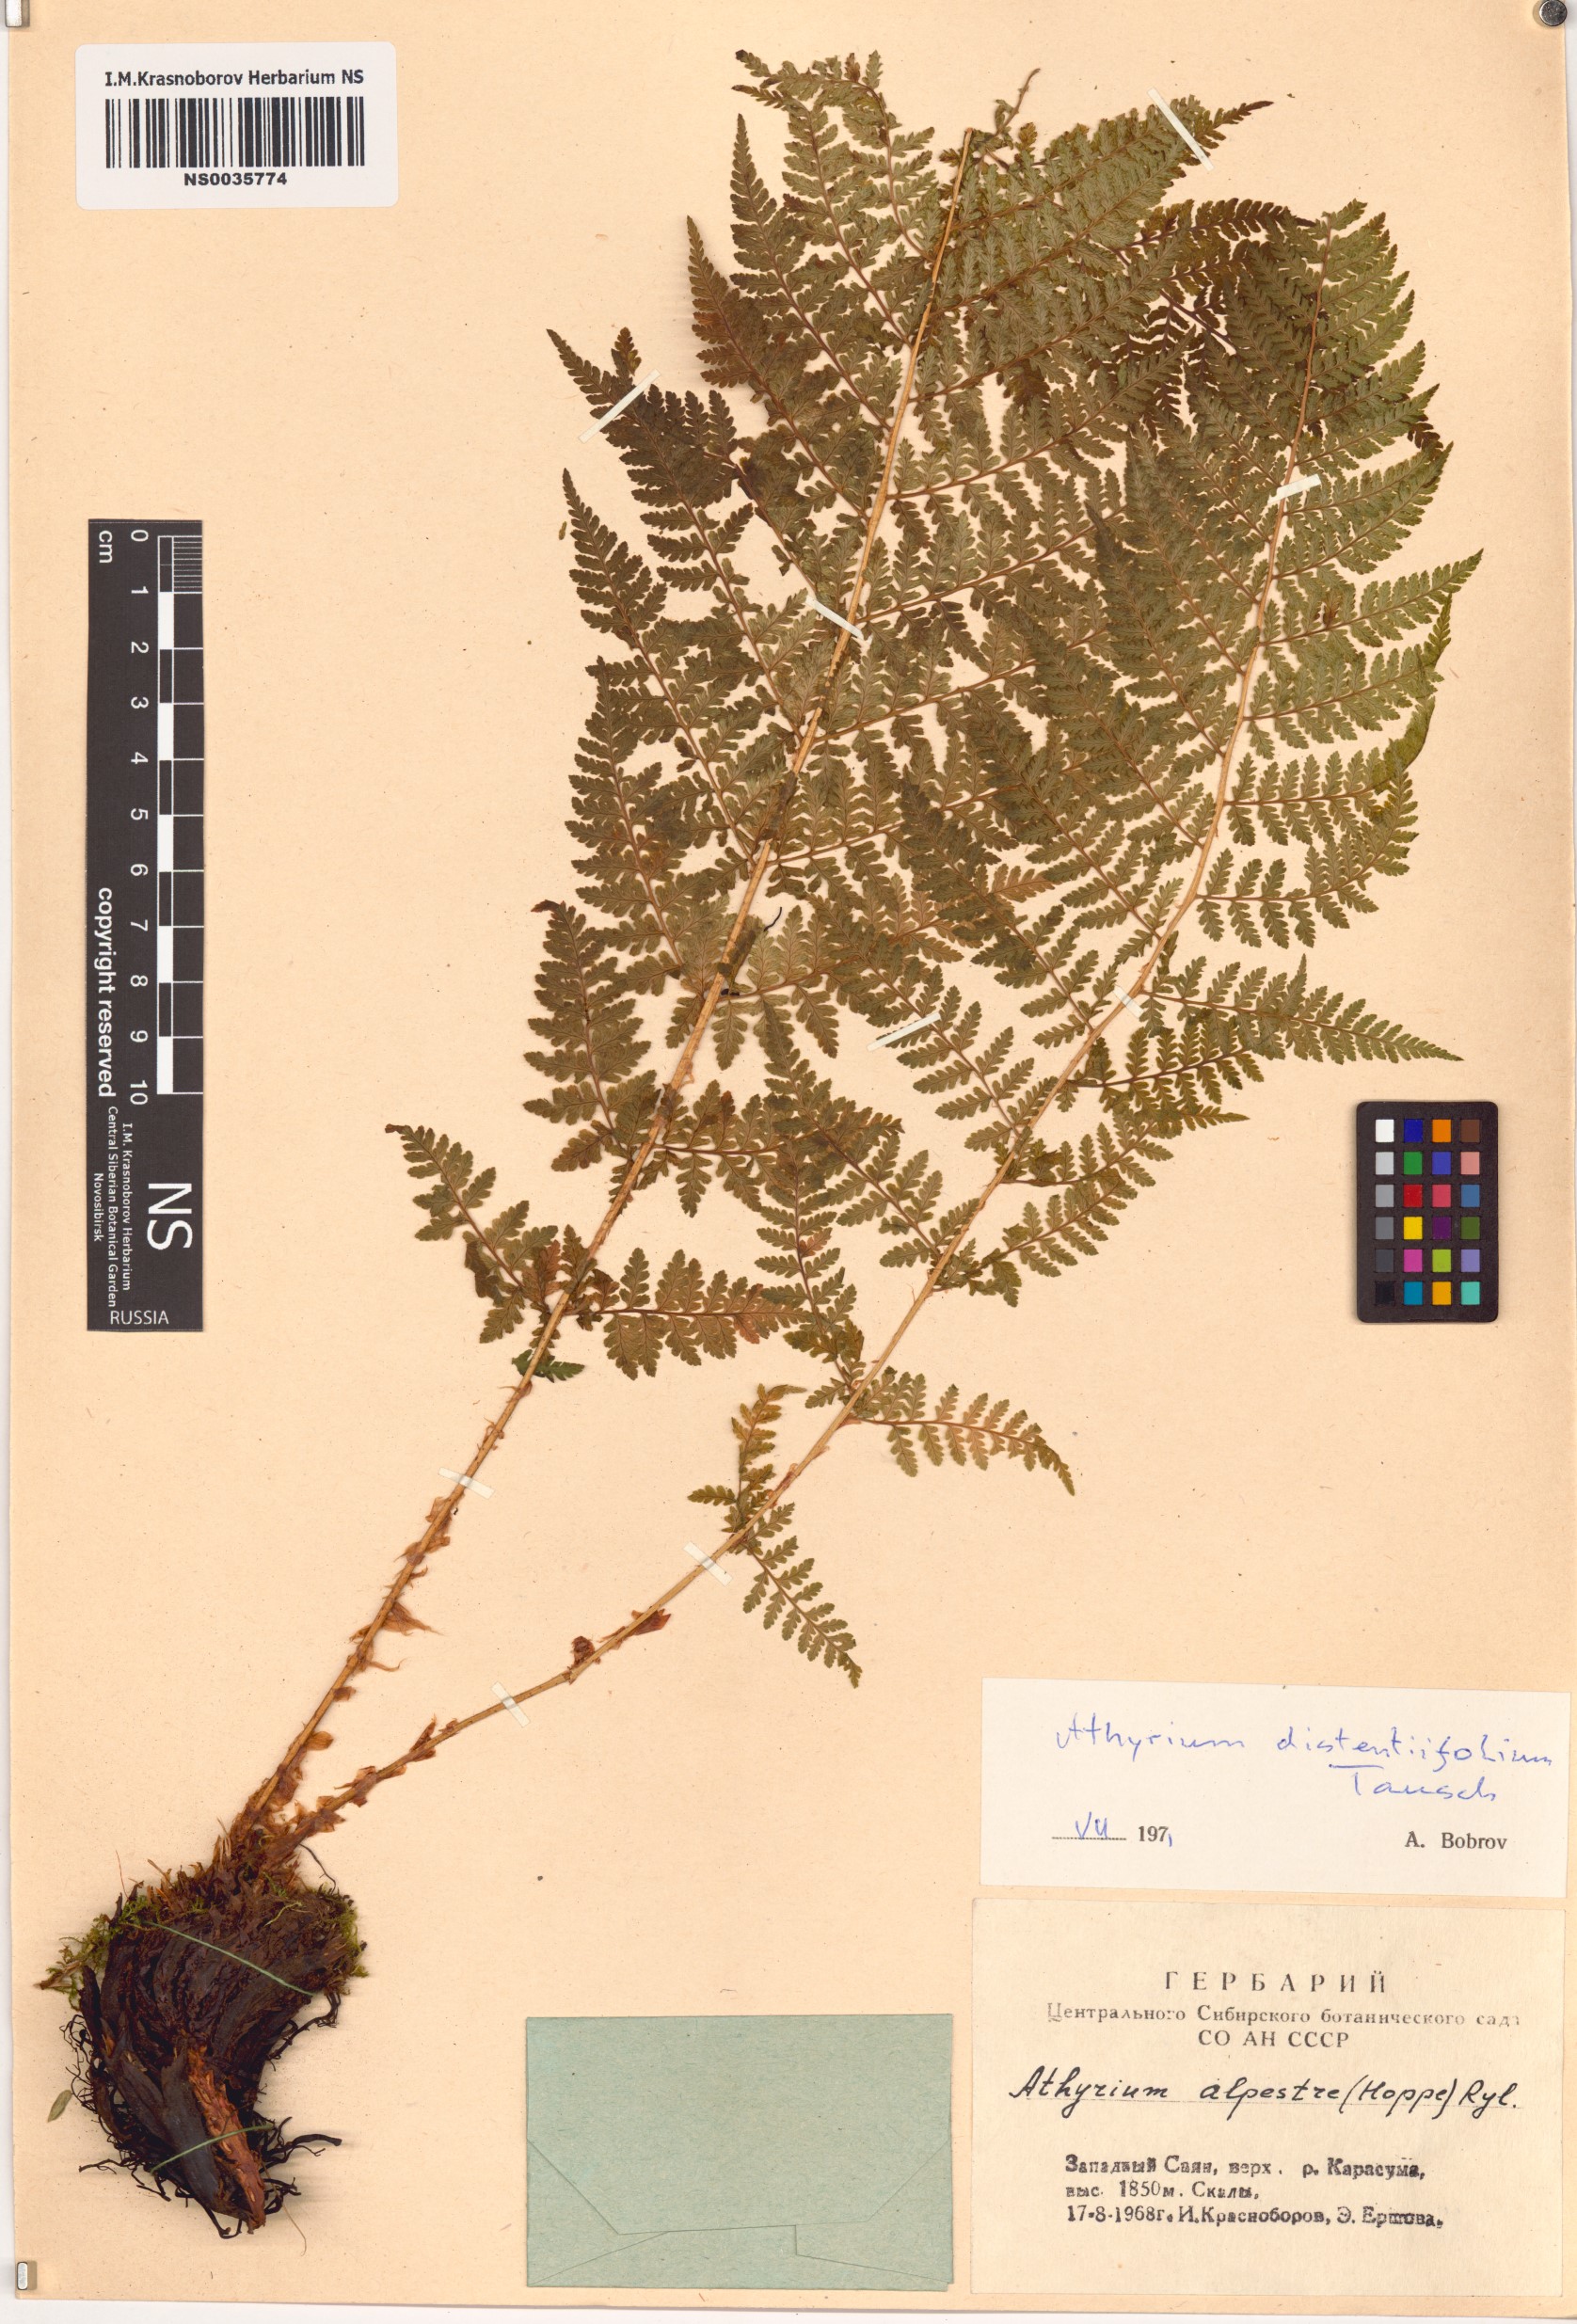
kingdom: Plantae
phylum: Tracheophyta
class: Polypodiopsida
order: Polypodiales
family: Athyriaceae
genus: Pseudathyrium
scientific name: Pseudathyrium alpestre
